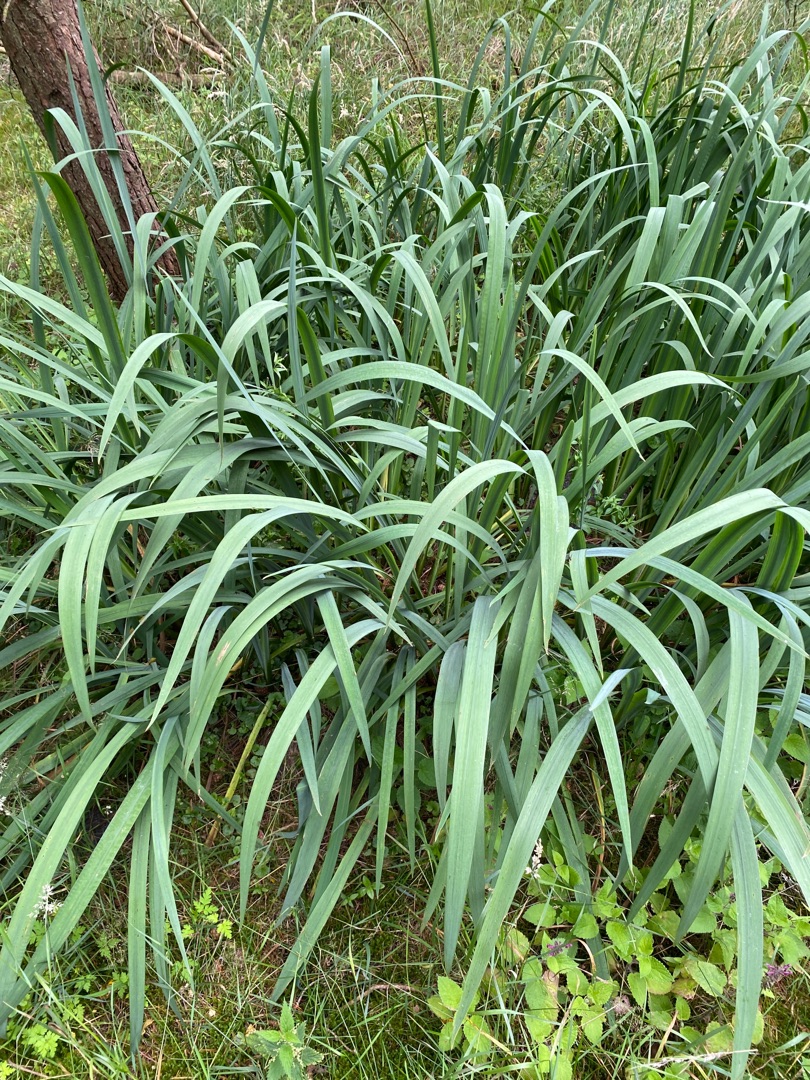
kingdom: Plantae
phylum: Tracheophyta
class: Liliopsida
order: Asparagales
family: Iridaceae
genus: Iris
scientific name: Iris pseudacorus
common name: Gul iris
